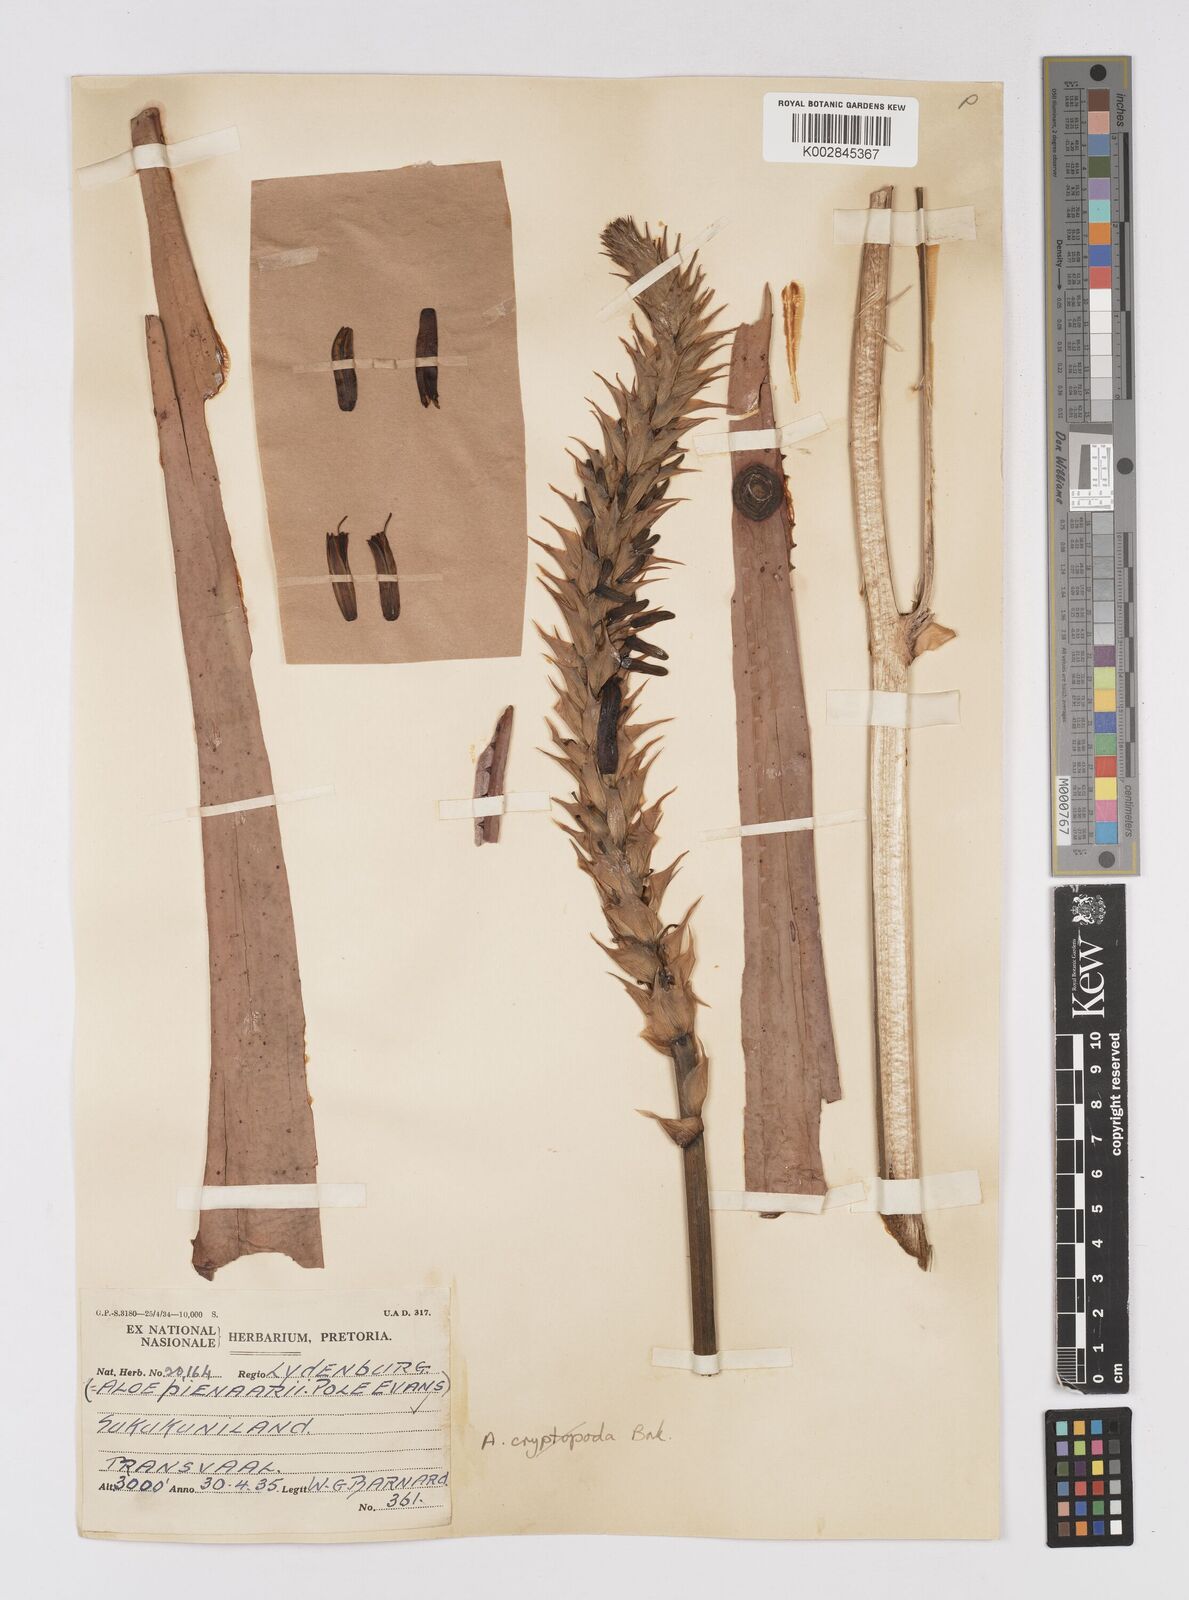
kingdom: Plantae
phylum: Tracheophyta
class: Liliopsida
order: Asparagales
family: Asphodelaceae
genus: Aloe
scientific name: Aloe pienaarii
